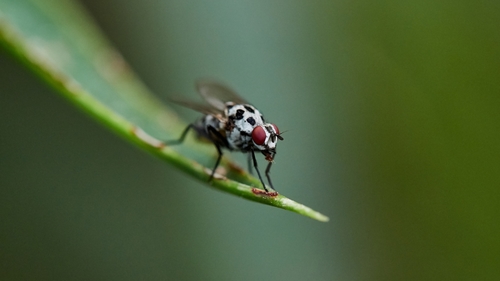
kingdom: Animalia
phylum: Arthropoda
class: Insecta
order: Diptera
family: Anthomyiidae
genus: Anthomyia
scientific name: Anthomyia
